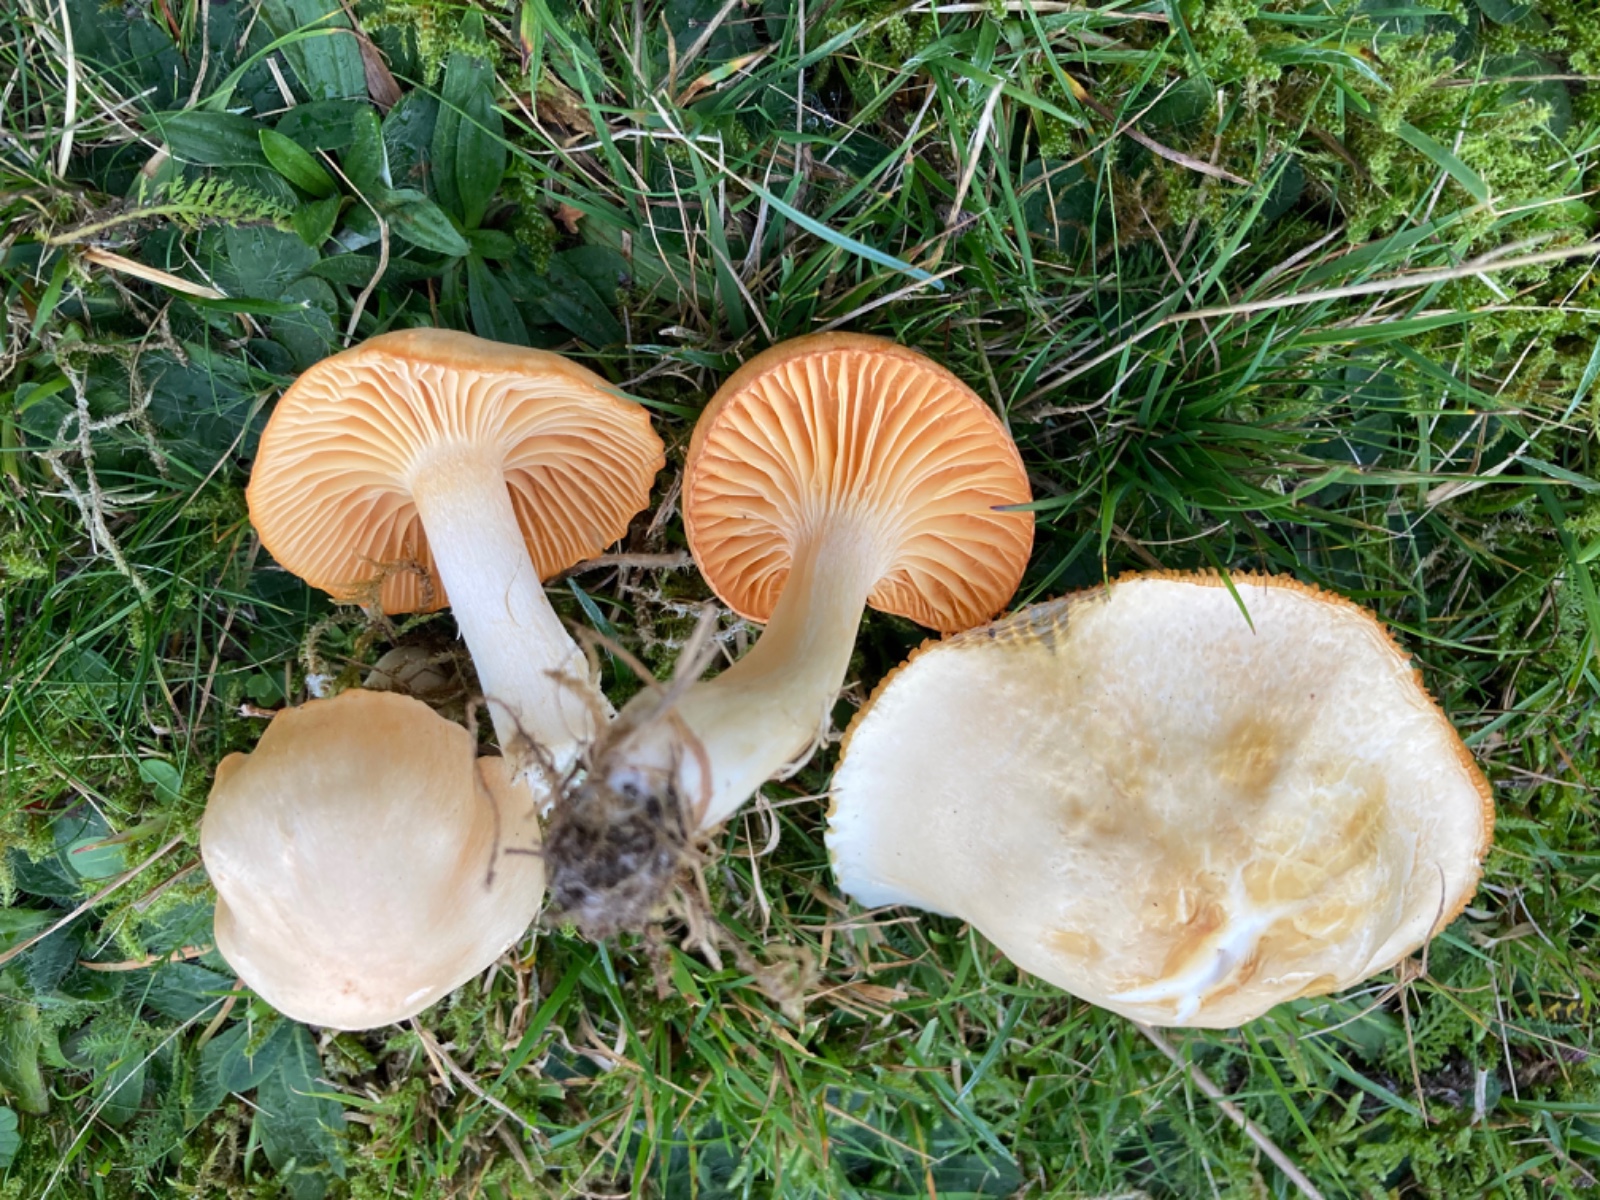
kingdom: Fungi
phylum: Basidiomycota
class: Agaricomycetes
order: Agaricales
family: Hygrophoraceae
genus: Cuphophyllus
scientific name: Cuphophyllus pratensis
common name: eng-vokshat
